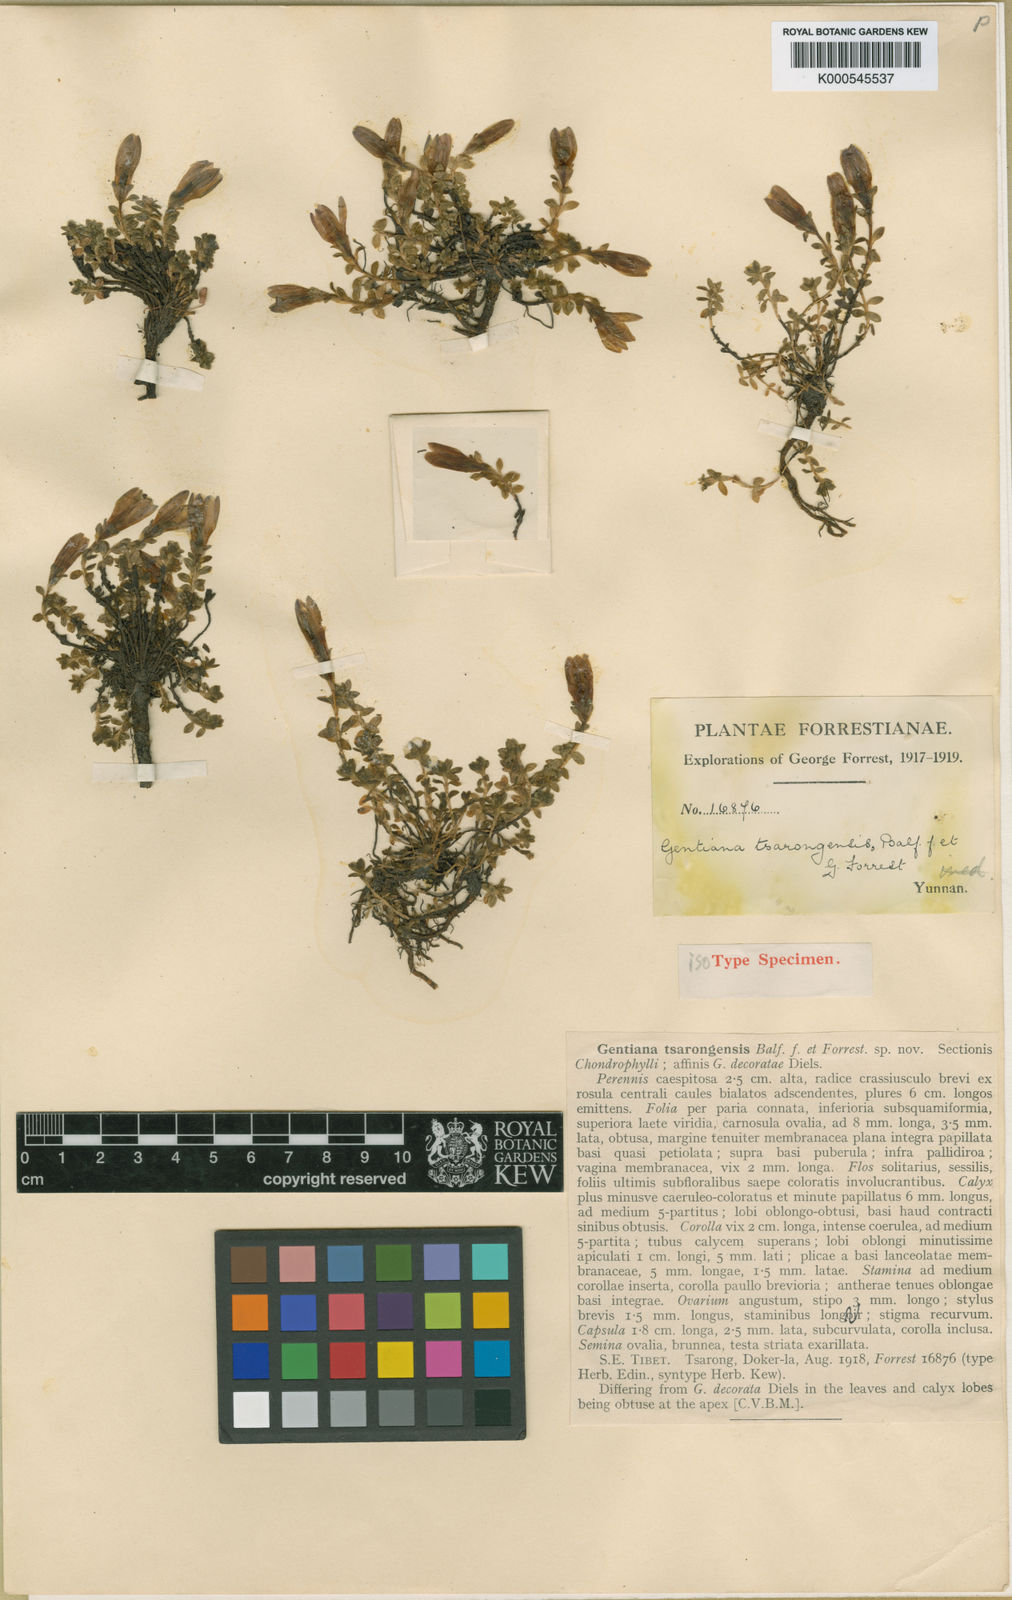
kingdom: Plantae
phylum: Tracheophyta
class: Magnoliopsida
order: Gentianales
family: Gentianaceae
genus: Kuepferia
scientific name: Kuepferia decorata
